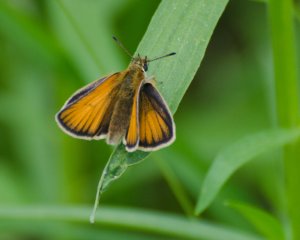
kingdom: Animalia
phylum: Arthropoda
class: Insecta
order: Lepidoptera
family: Hesperiidae
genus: Thymelicus
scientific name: Thymelicus lineola
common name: European Skipper
